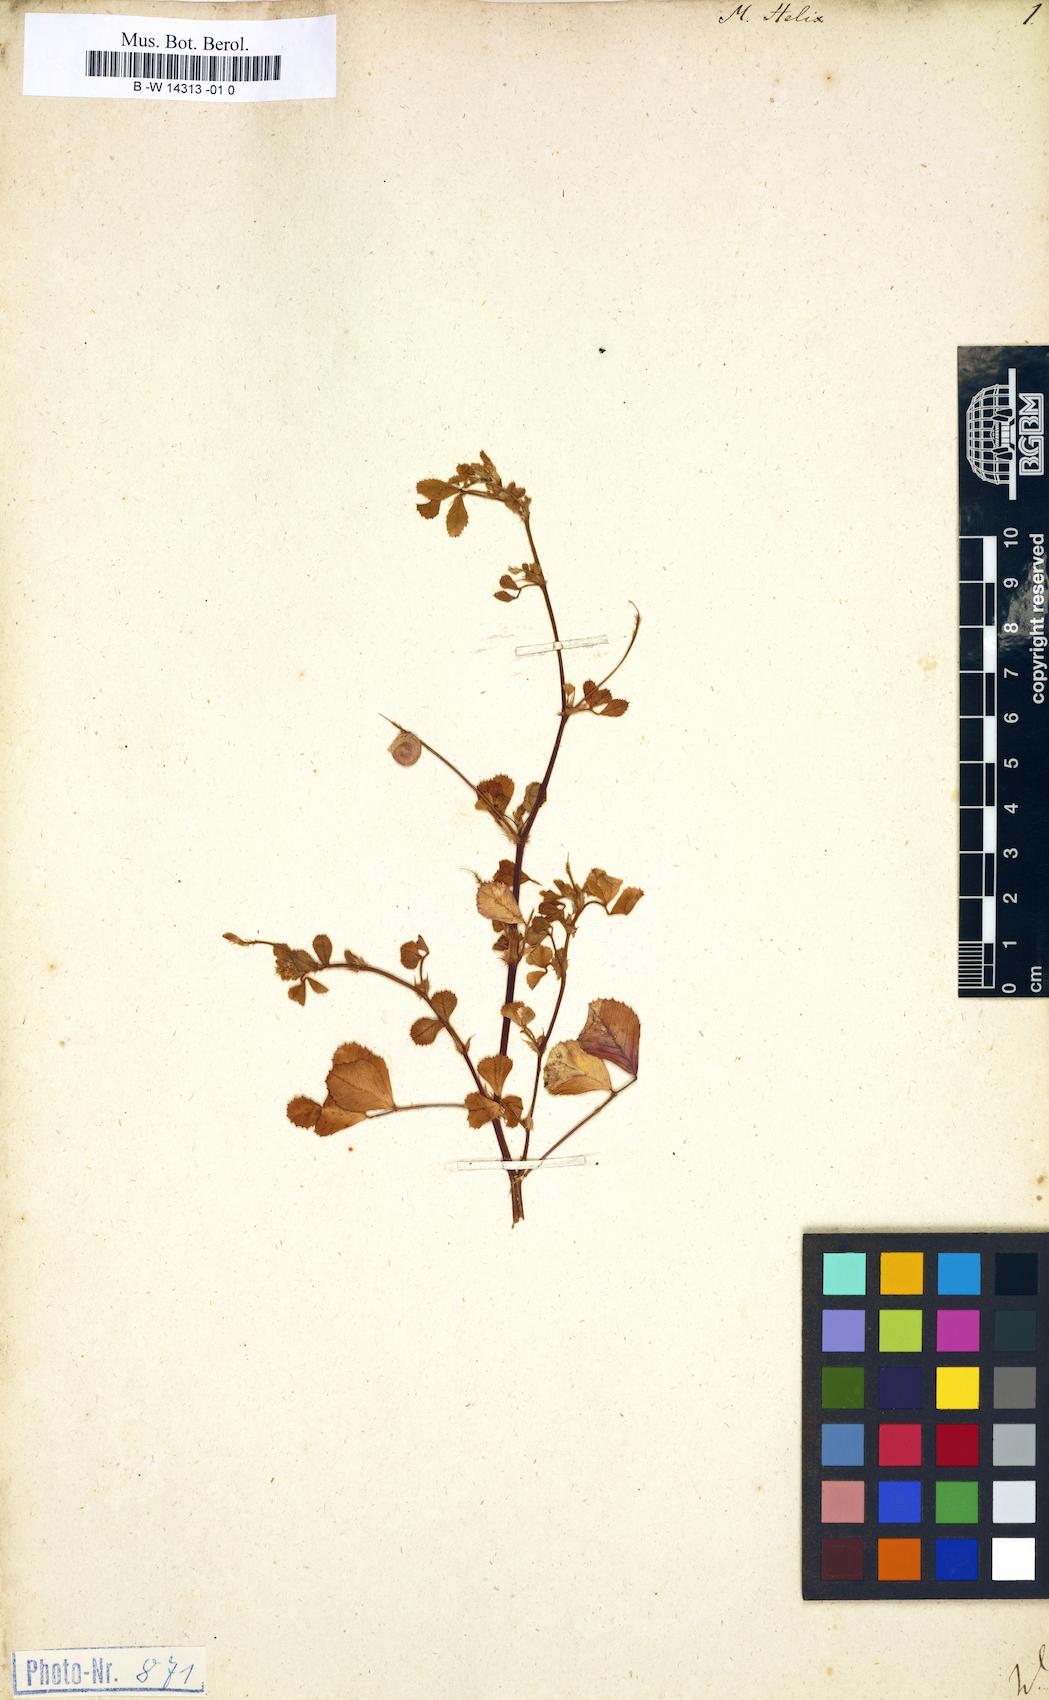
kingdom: Plantae
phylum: Tracheophyta
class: Magnoliopsida
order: Fabales
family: Fabaceae
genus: Medicago
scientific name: Medicago tornata
